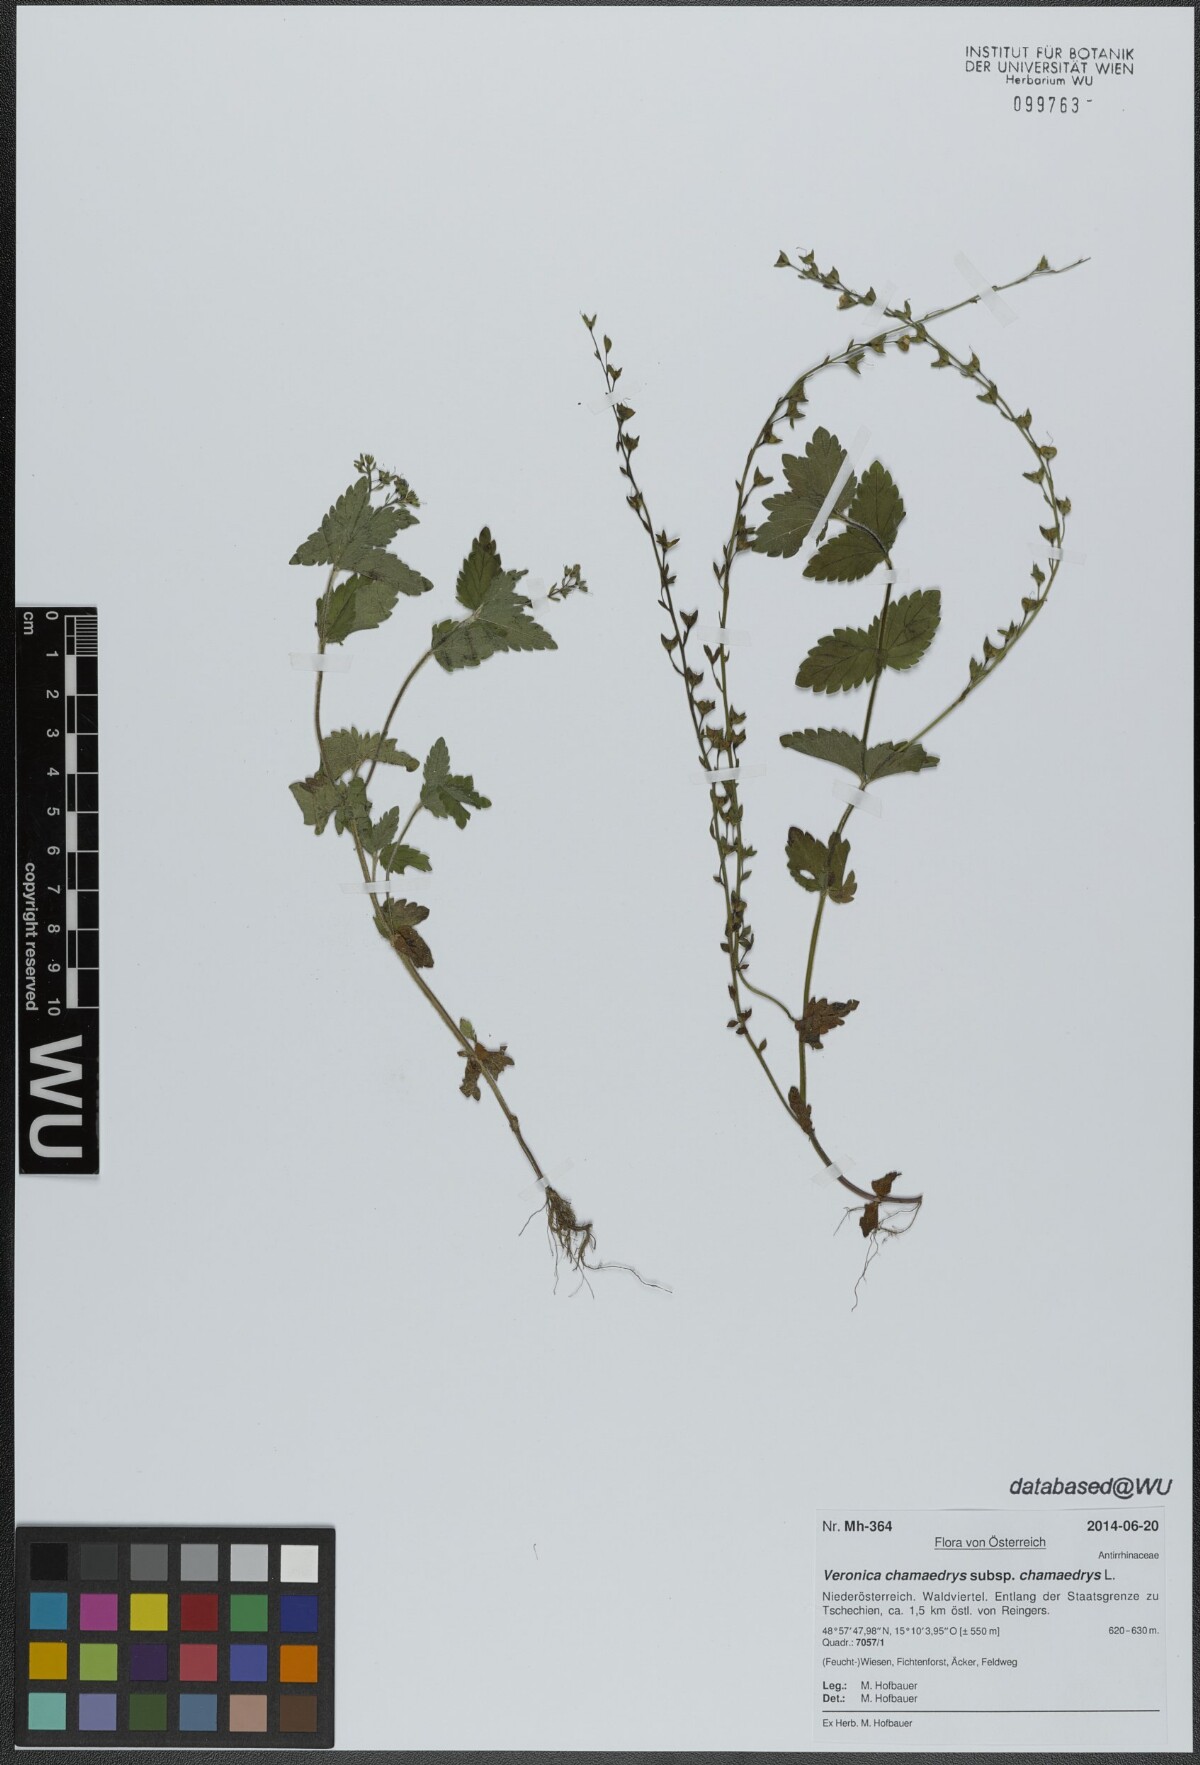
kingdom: Plantae
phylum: Tracheophyta
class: Magnoliopsida
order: Lamiales
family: Plantaginaceae
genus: Veronica
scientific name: Veronica chamaedrys
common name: Germander speedwell
